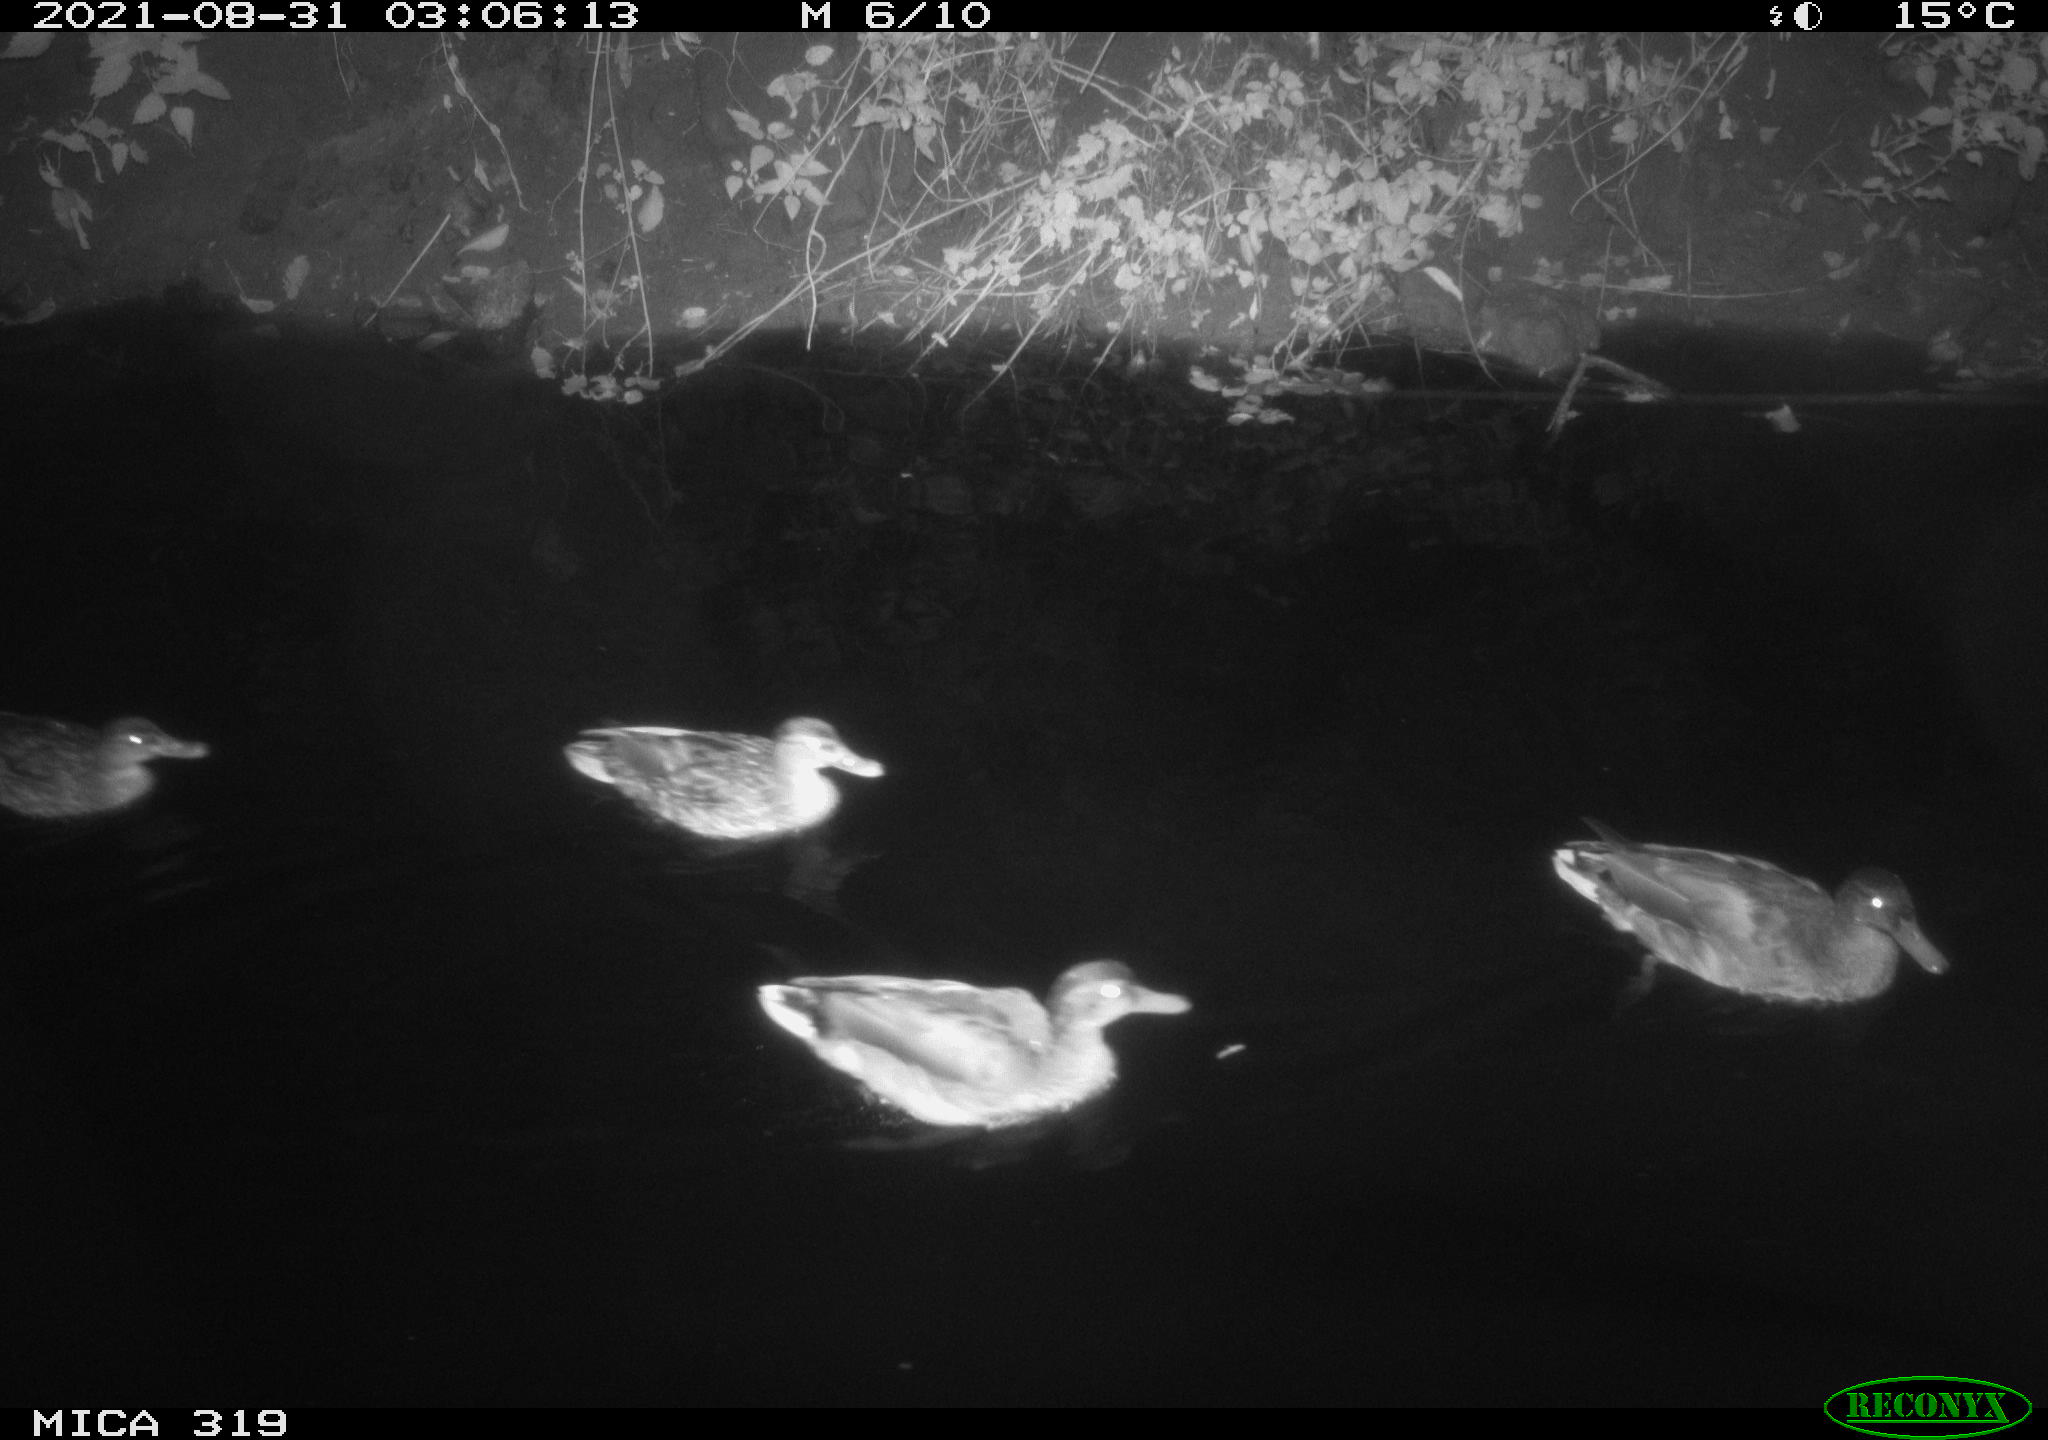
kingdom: Animalia
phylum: Chordata
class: Aves
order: Anseriformes
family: Anatidae
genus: Anas
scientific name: Anas platyrhynchos
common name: Mallard
